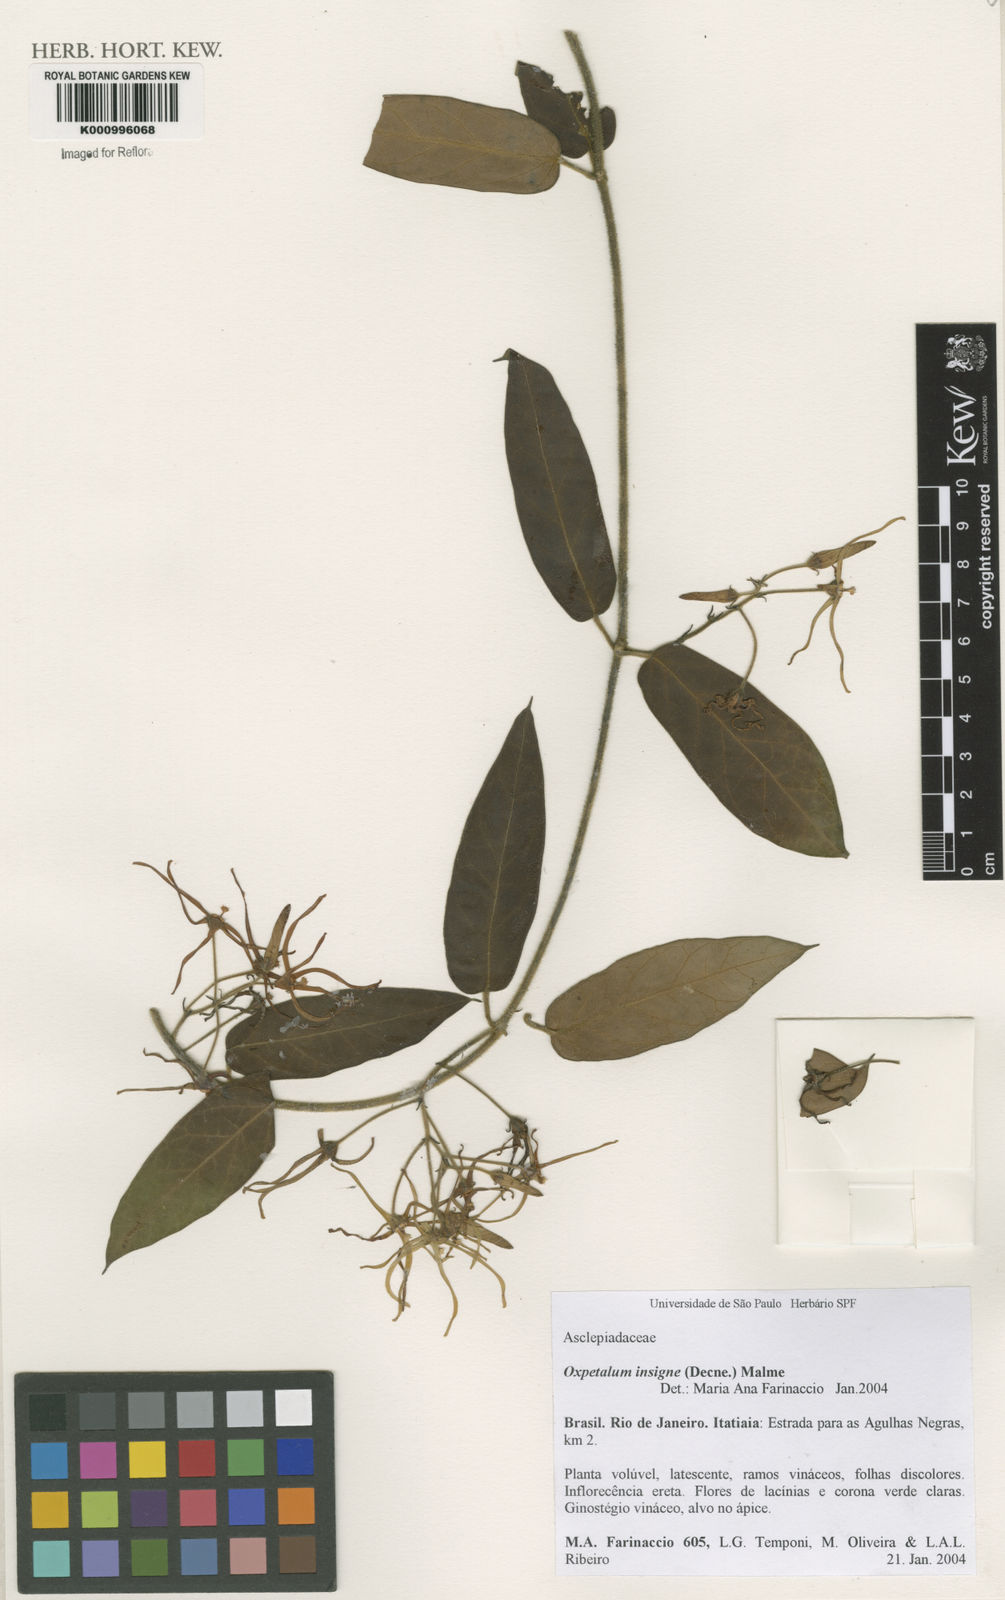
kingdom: Plantae
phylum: Tracheophyta
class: Magnoliopsida
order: Gentianales
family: Apocynaceae
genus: Oxypetalum
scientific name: Oxypetalum insigne
